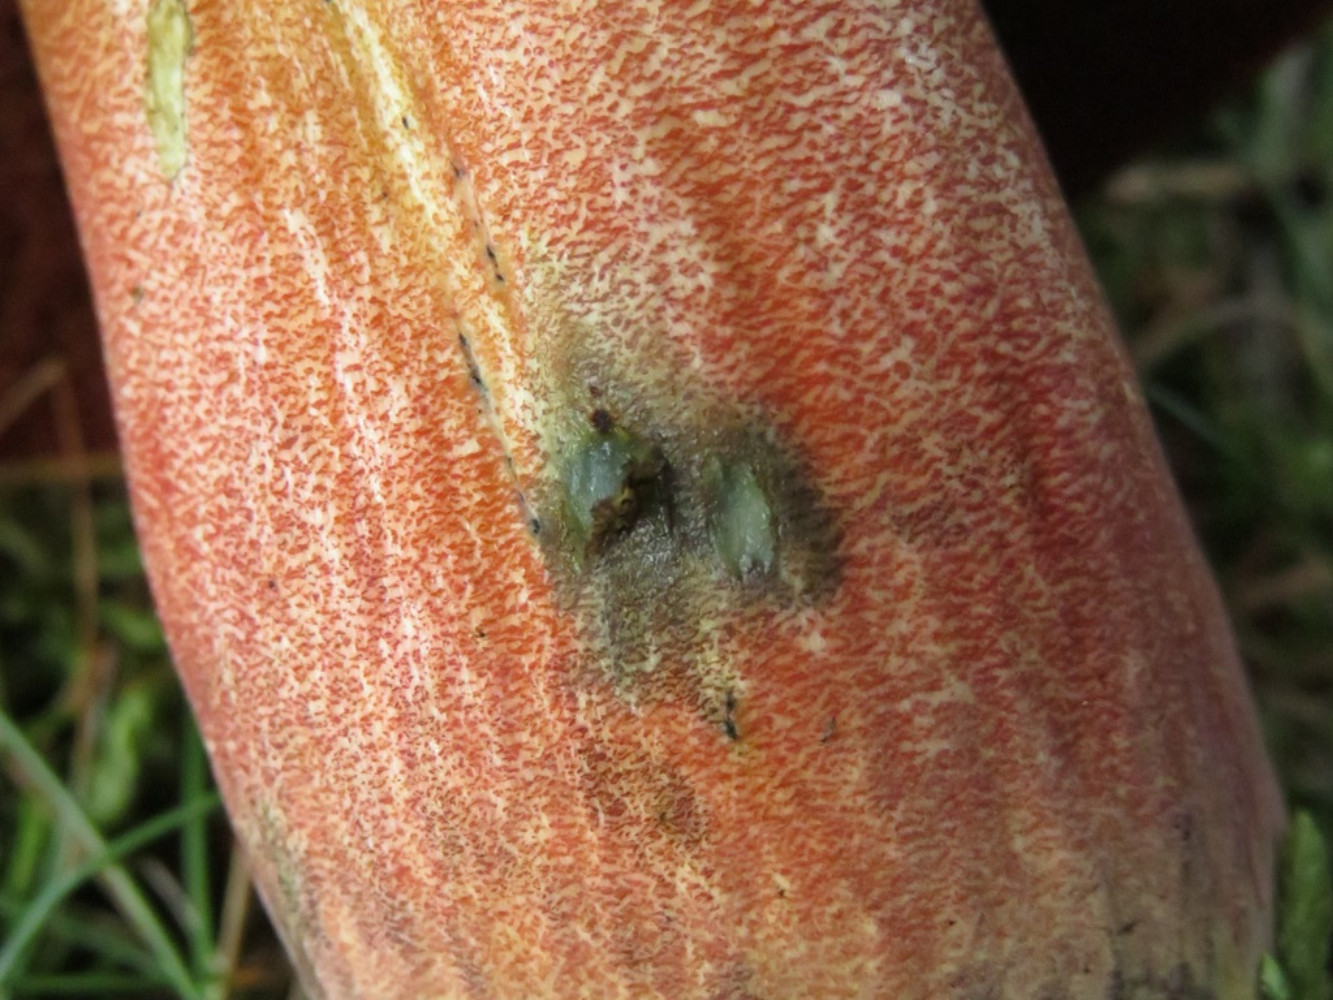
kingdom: Fungi
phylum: Basidiomycota
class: Agaricomycetes
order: Boletales
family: Boletaceae
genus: Neoboletus
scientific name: Neoboletus erythropus
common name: punktstokket indigorørhat
